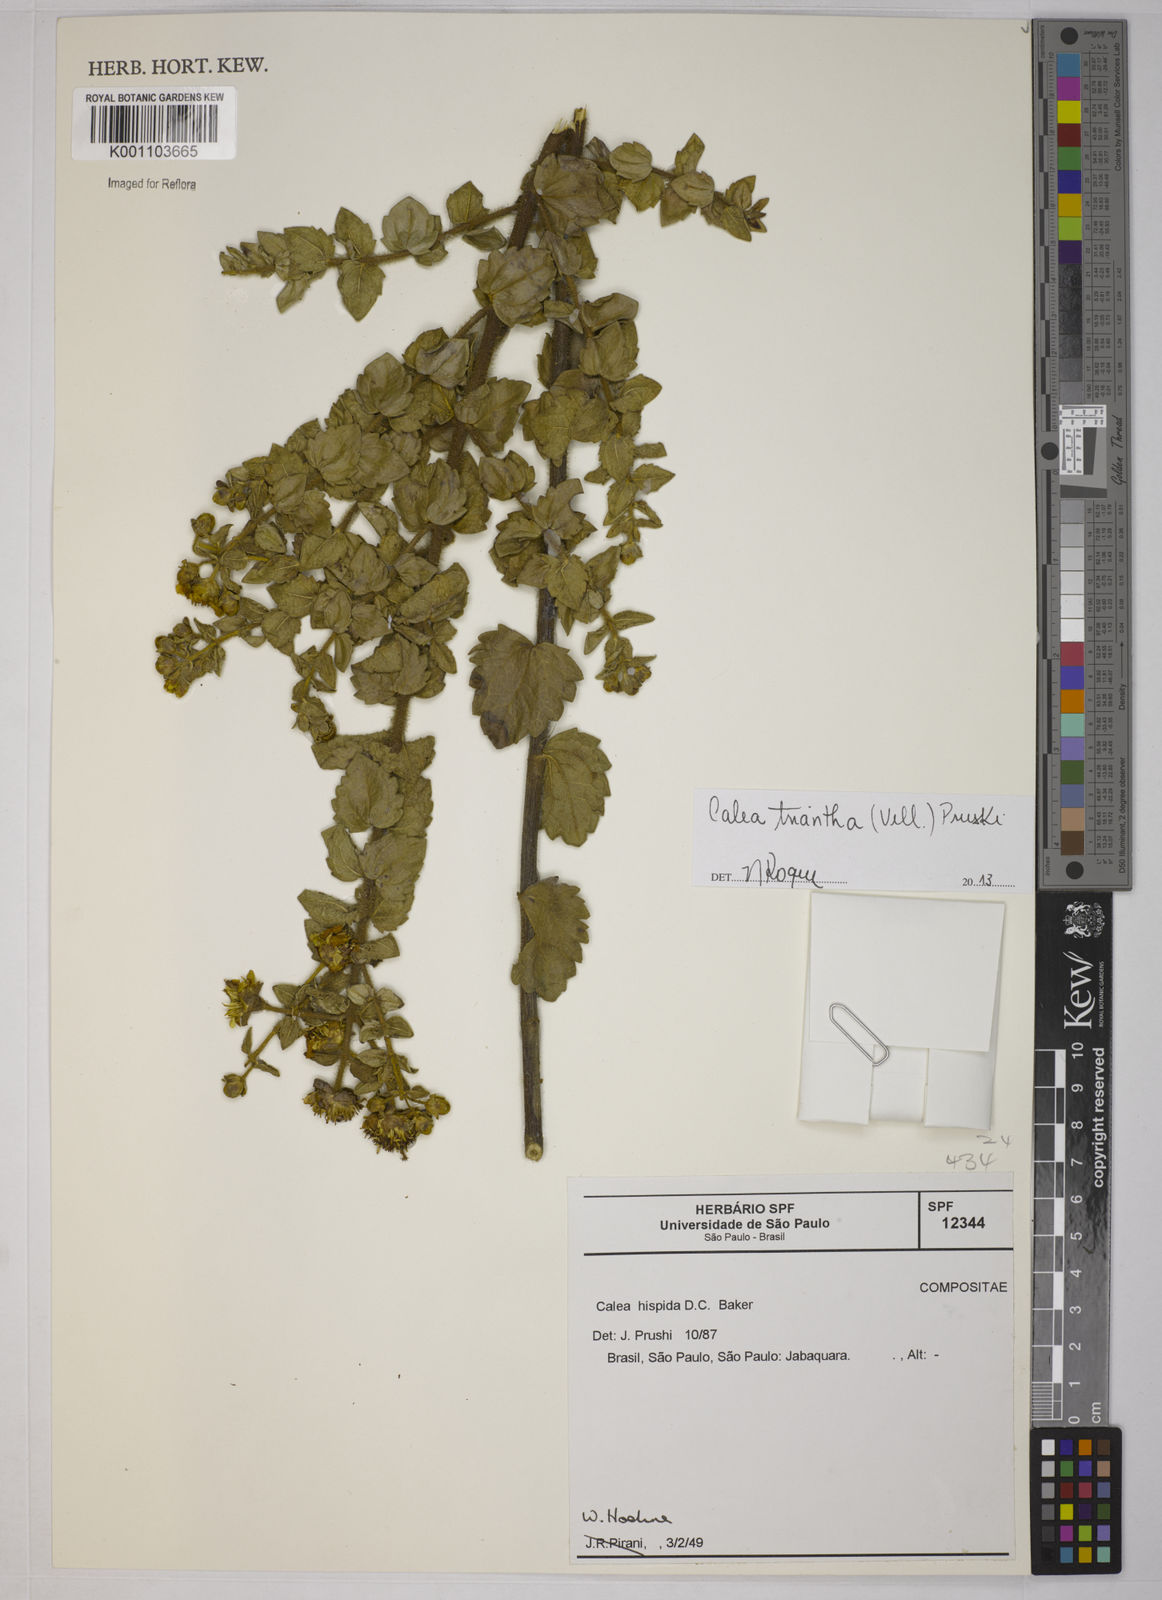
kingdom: Plantae
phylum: Tracheophyta
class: Magnoliopsida
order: Asterales
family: Asteraceae
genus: Calea
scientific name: Calea triantha
